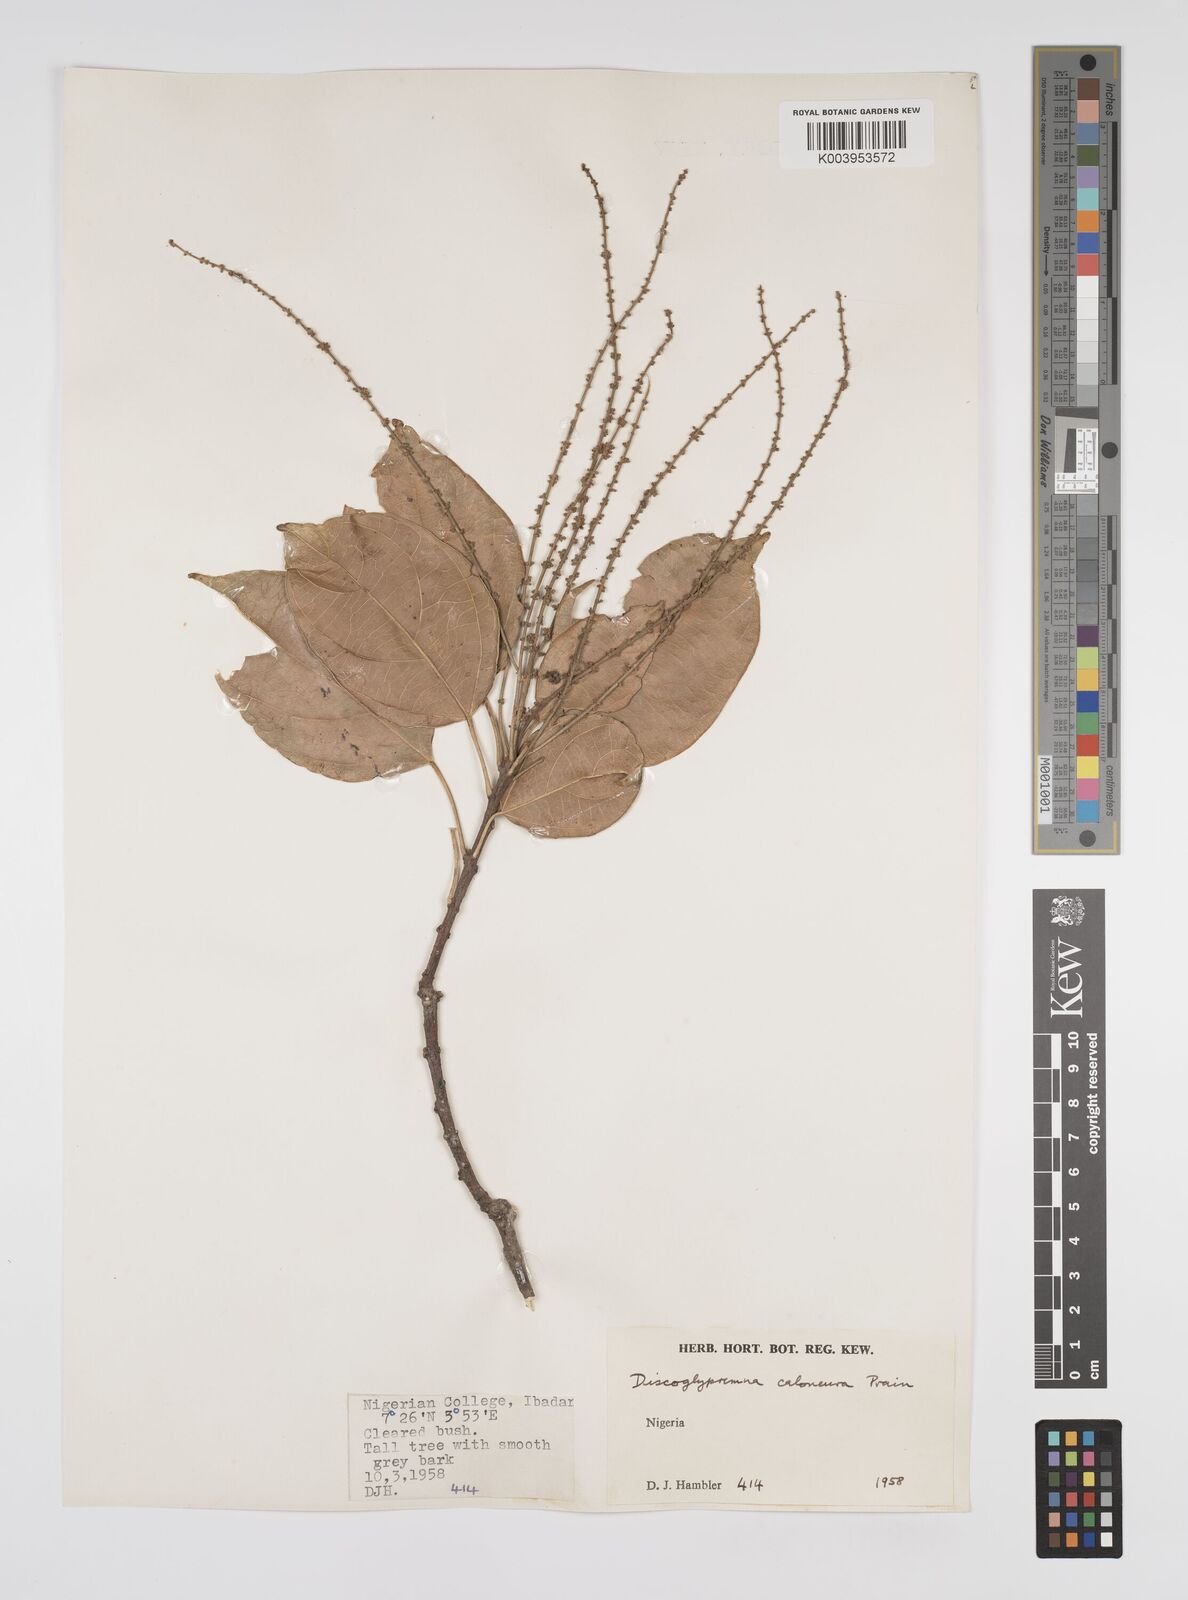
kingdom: Plantae
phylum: Tracheophyta
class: Magnoliopsida
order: Malpighiales
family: Euphorbiaceae
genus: Discoglypremna
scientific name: Discoglypremna caloneura
